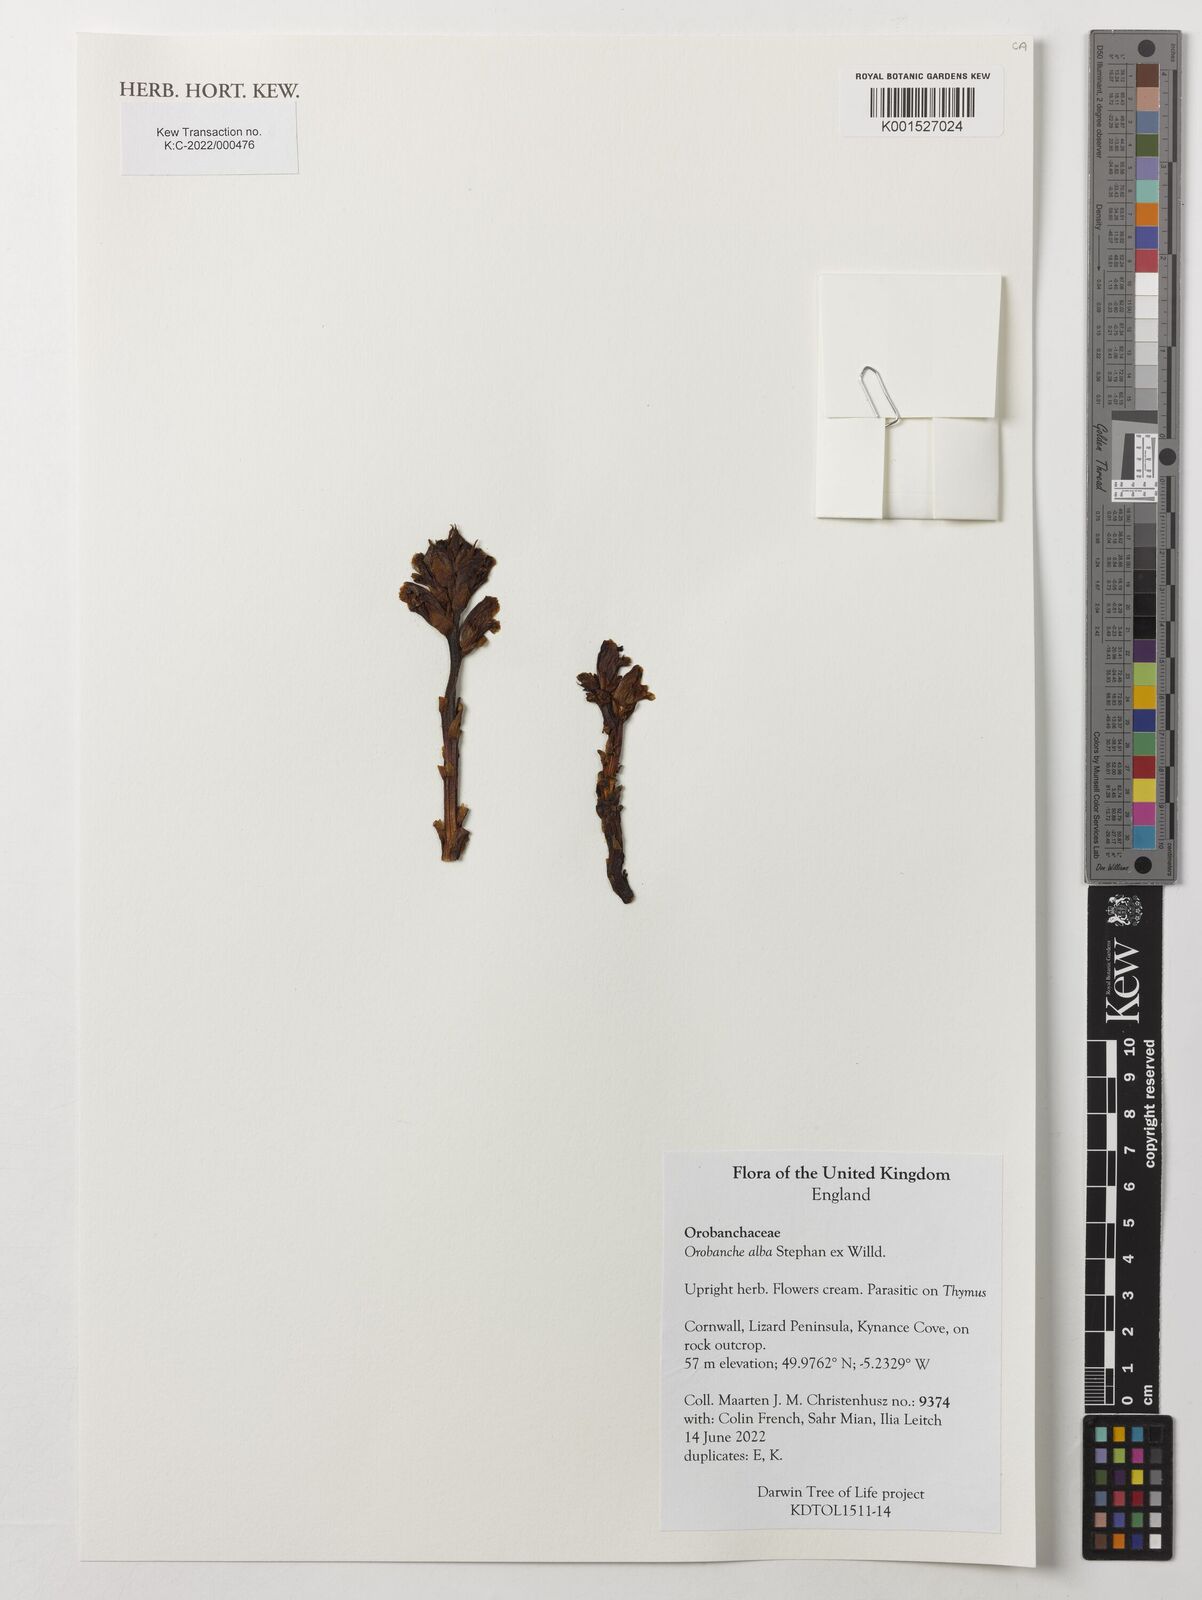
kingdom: Plantae
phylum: Tracheophyta
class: Magnoliopsida
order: Lamiales
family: Orobanchaceae
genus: Orobanche
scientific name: Orobanche alba
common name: Thyme broomrape
